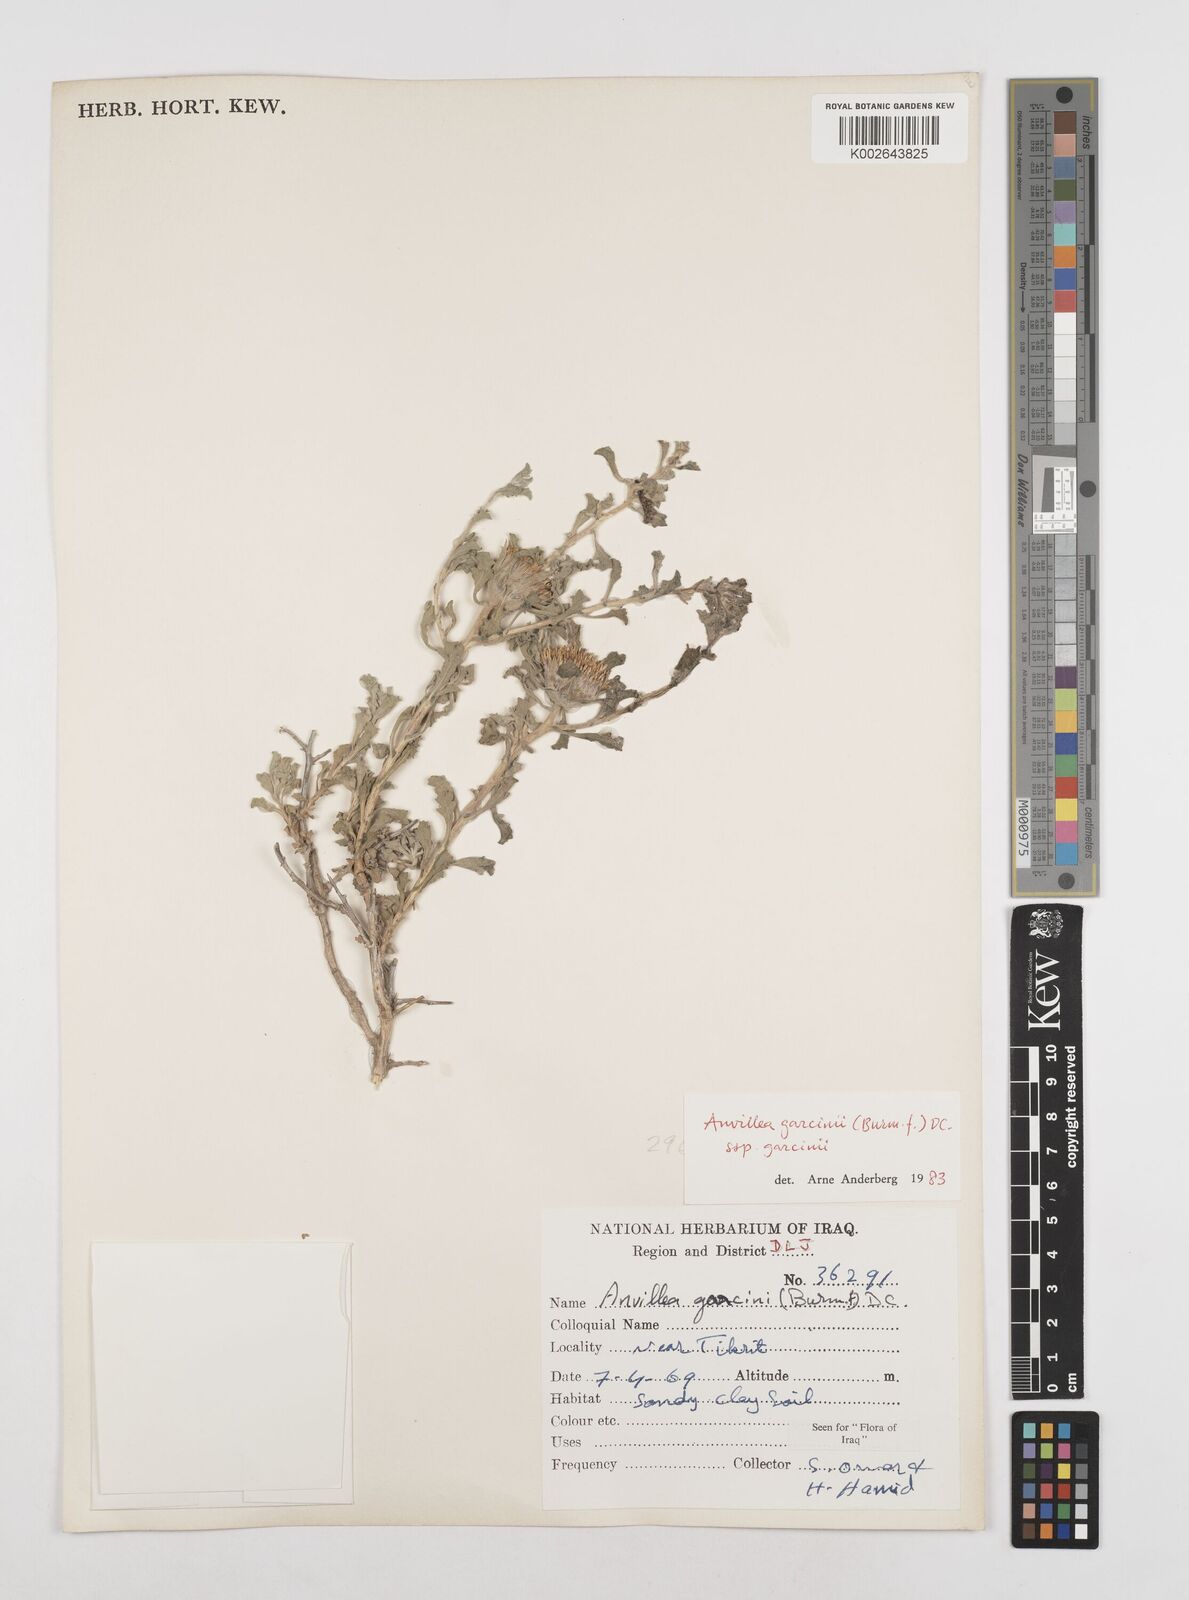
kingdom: Plantae
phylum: Tracheophyta
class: Magnoliopsida
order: Asterales
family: Asteraceae
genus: Anvillea
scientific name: Anvillea garcinii
